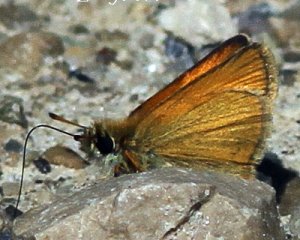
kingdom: Animalia
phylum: Arthropoda
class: Insecta
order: Lepidoptera
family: Hesperiidae
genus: Thymelicus
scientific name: Thymelicus lineola
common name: European Skipper
